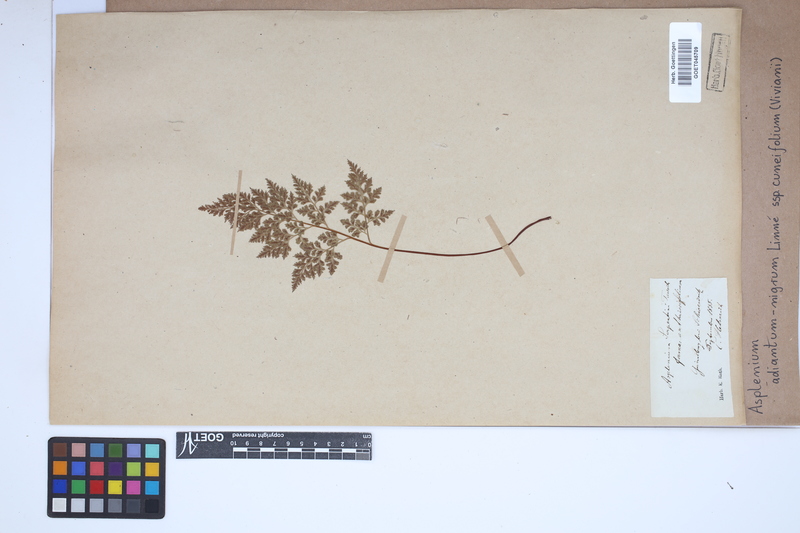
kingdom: Plantae
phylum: Tracheophyta
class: Polypodiopsida
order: Polypodiales
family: Aspleniaceae
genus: Asplenium
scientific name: Asplenium cuneifolium
